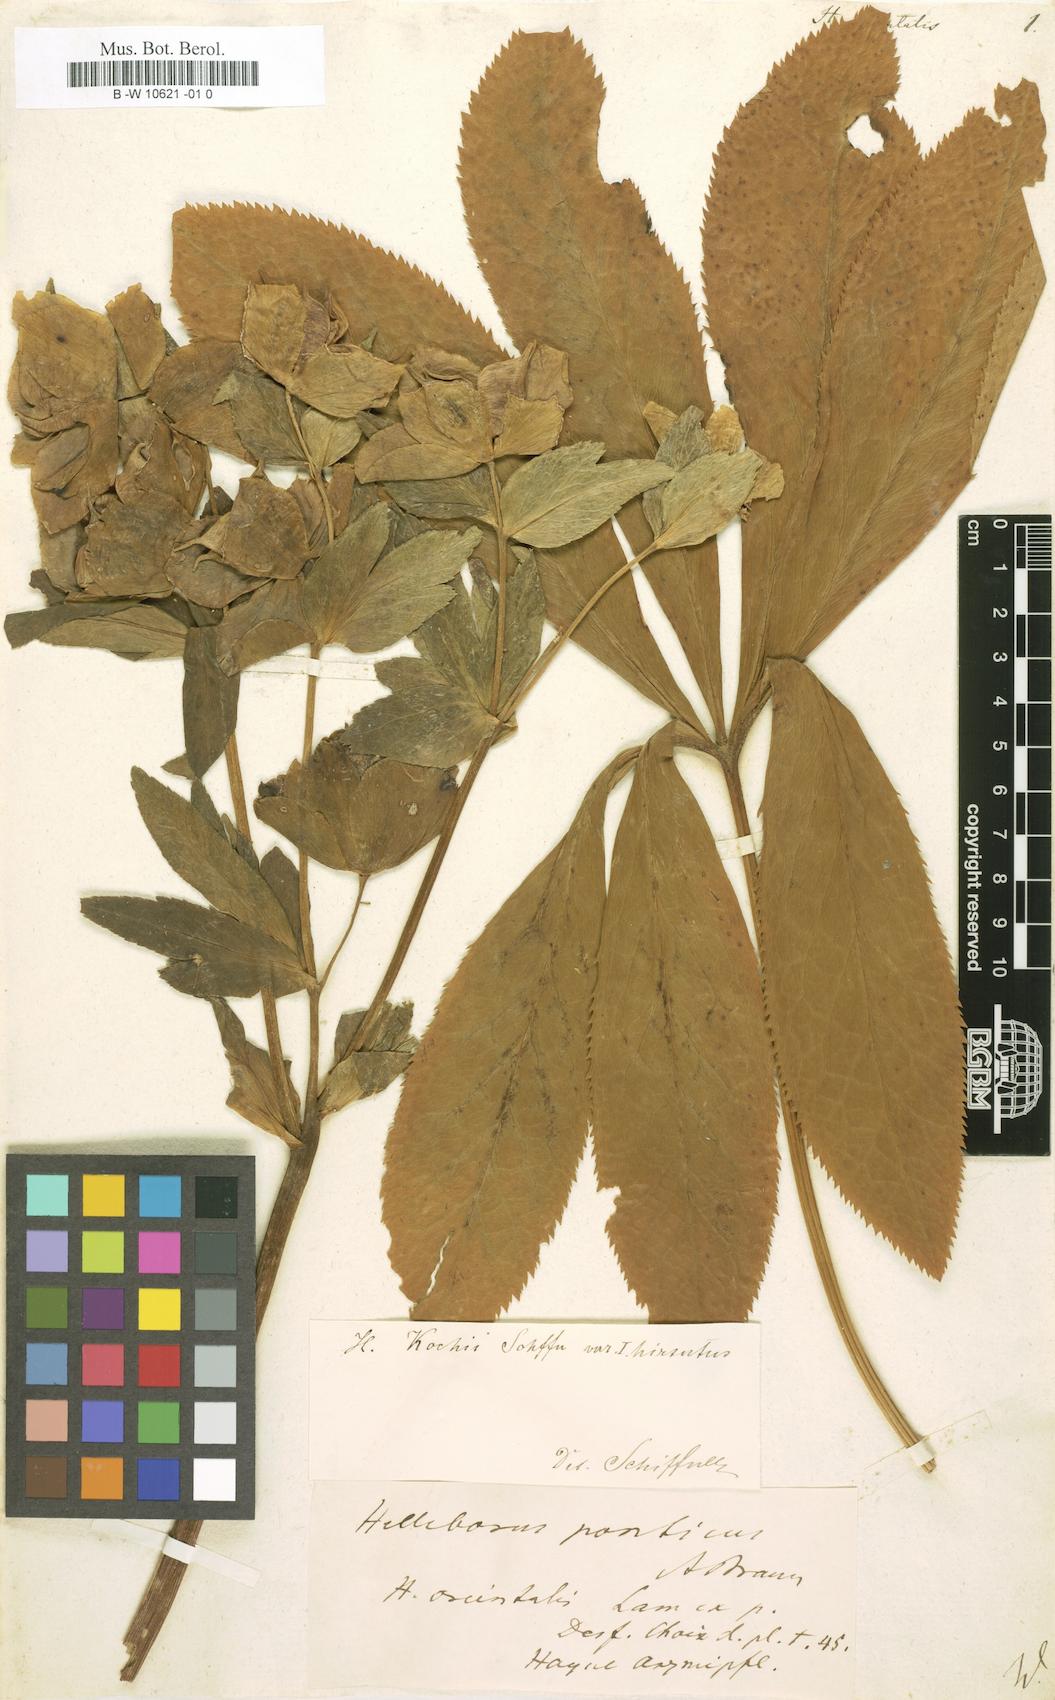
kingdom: Plantae
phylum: Tracheophyta
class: Magnoliopsida
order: Ranunculales
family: Ranunculaceae
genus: Helleborus
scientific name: Helleborus orientalis
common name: Lenten-rose
